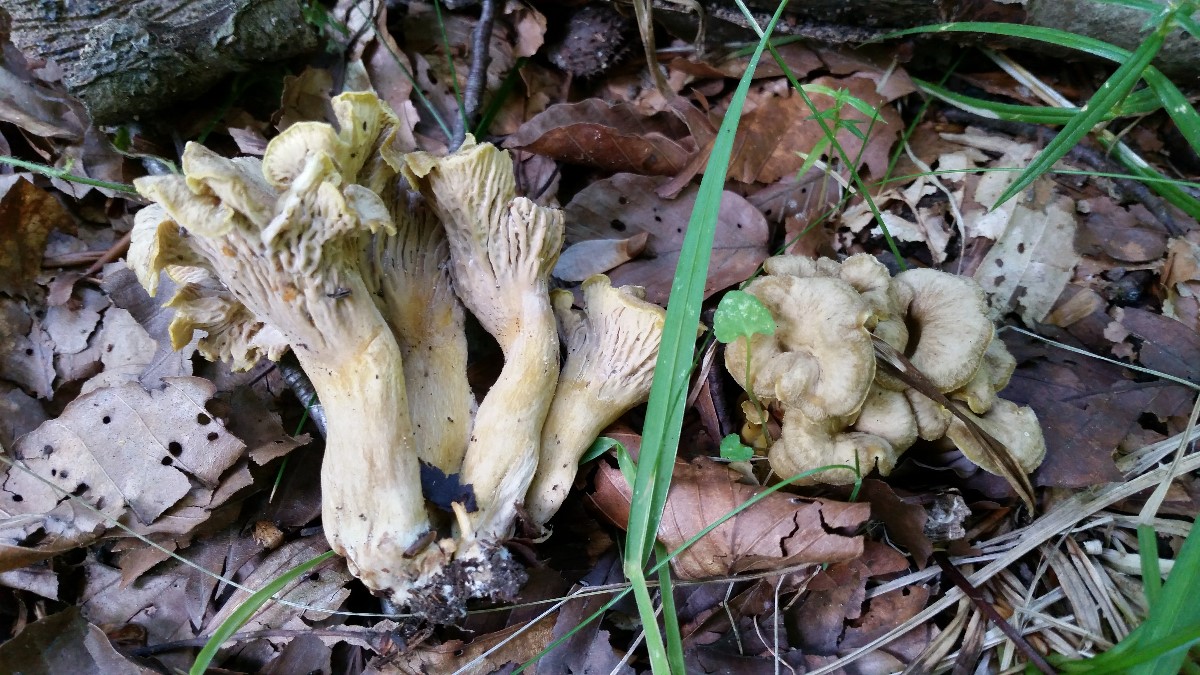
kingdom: Fungi
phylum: Basidiomycota
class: Agaricomycetes
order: Cantharellales
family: Hydnaceae
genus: Cantharellus
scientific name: Cantharellus melanoxeros
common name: sværtende kantarel
